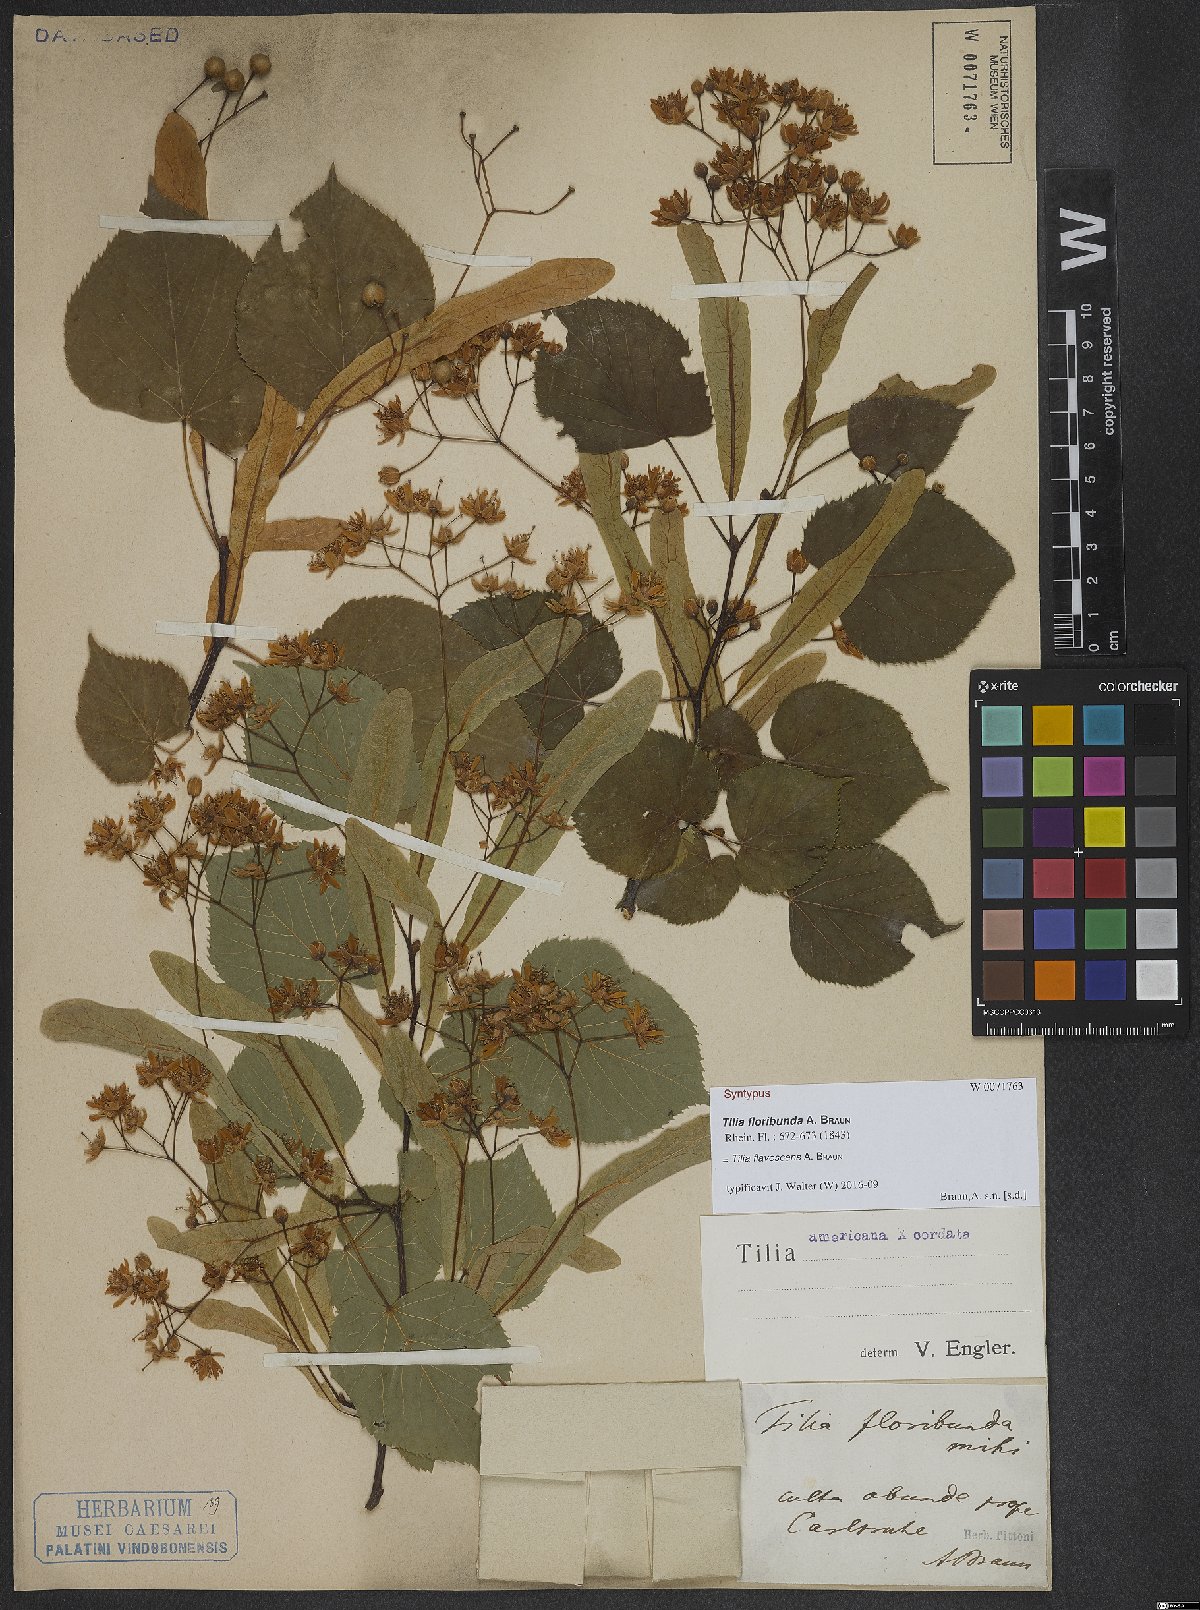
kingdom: Plantae
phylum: Tracheophyta
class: Magnoliopsida
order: Malvales
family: Tiliaceae
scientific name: Tiliaceae
